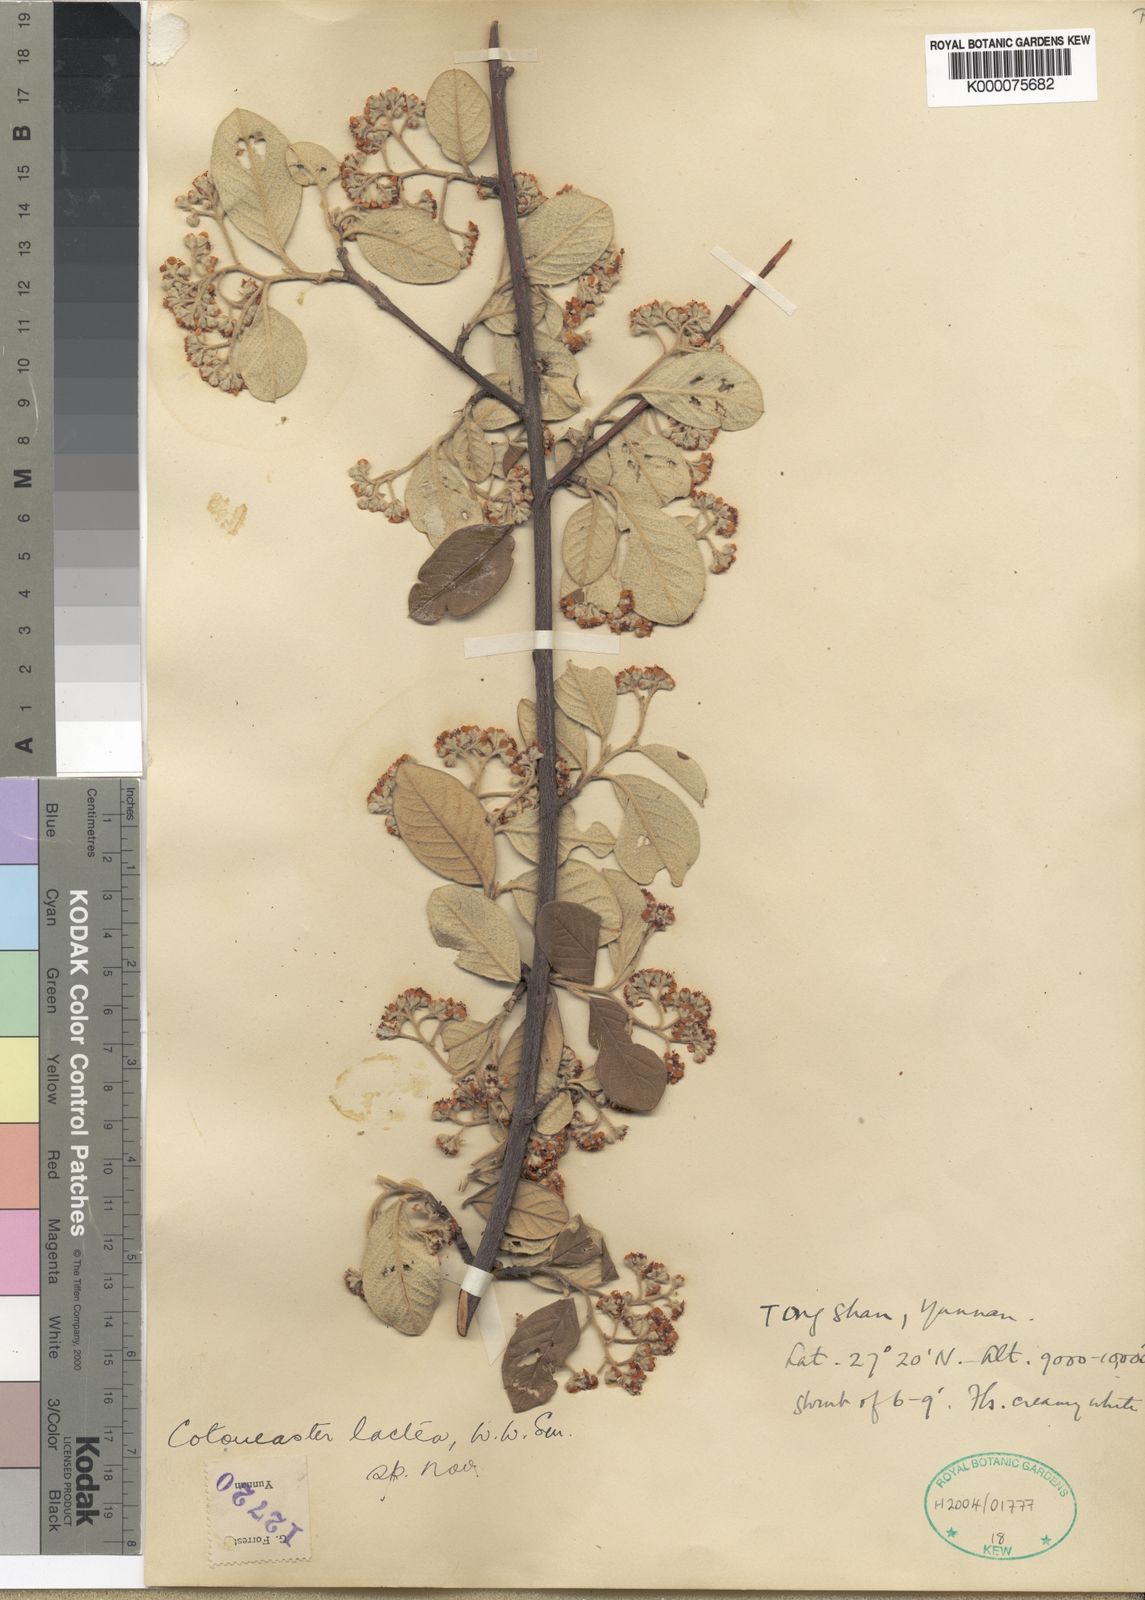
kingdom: Plantae
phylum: Tracheophyta
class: Magnoliopsida
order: Rosales
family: Rosaceae
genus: Cotoneaster
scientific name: Cotoneaster coriaceus
